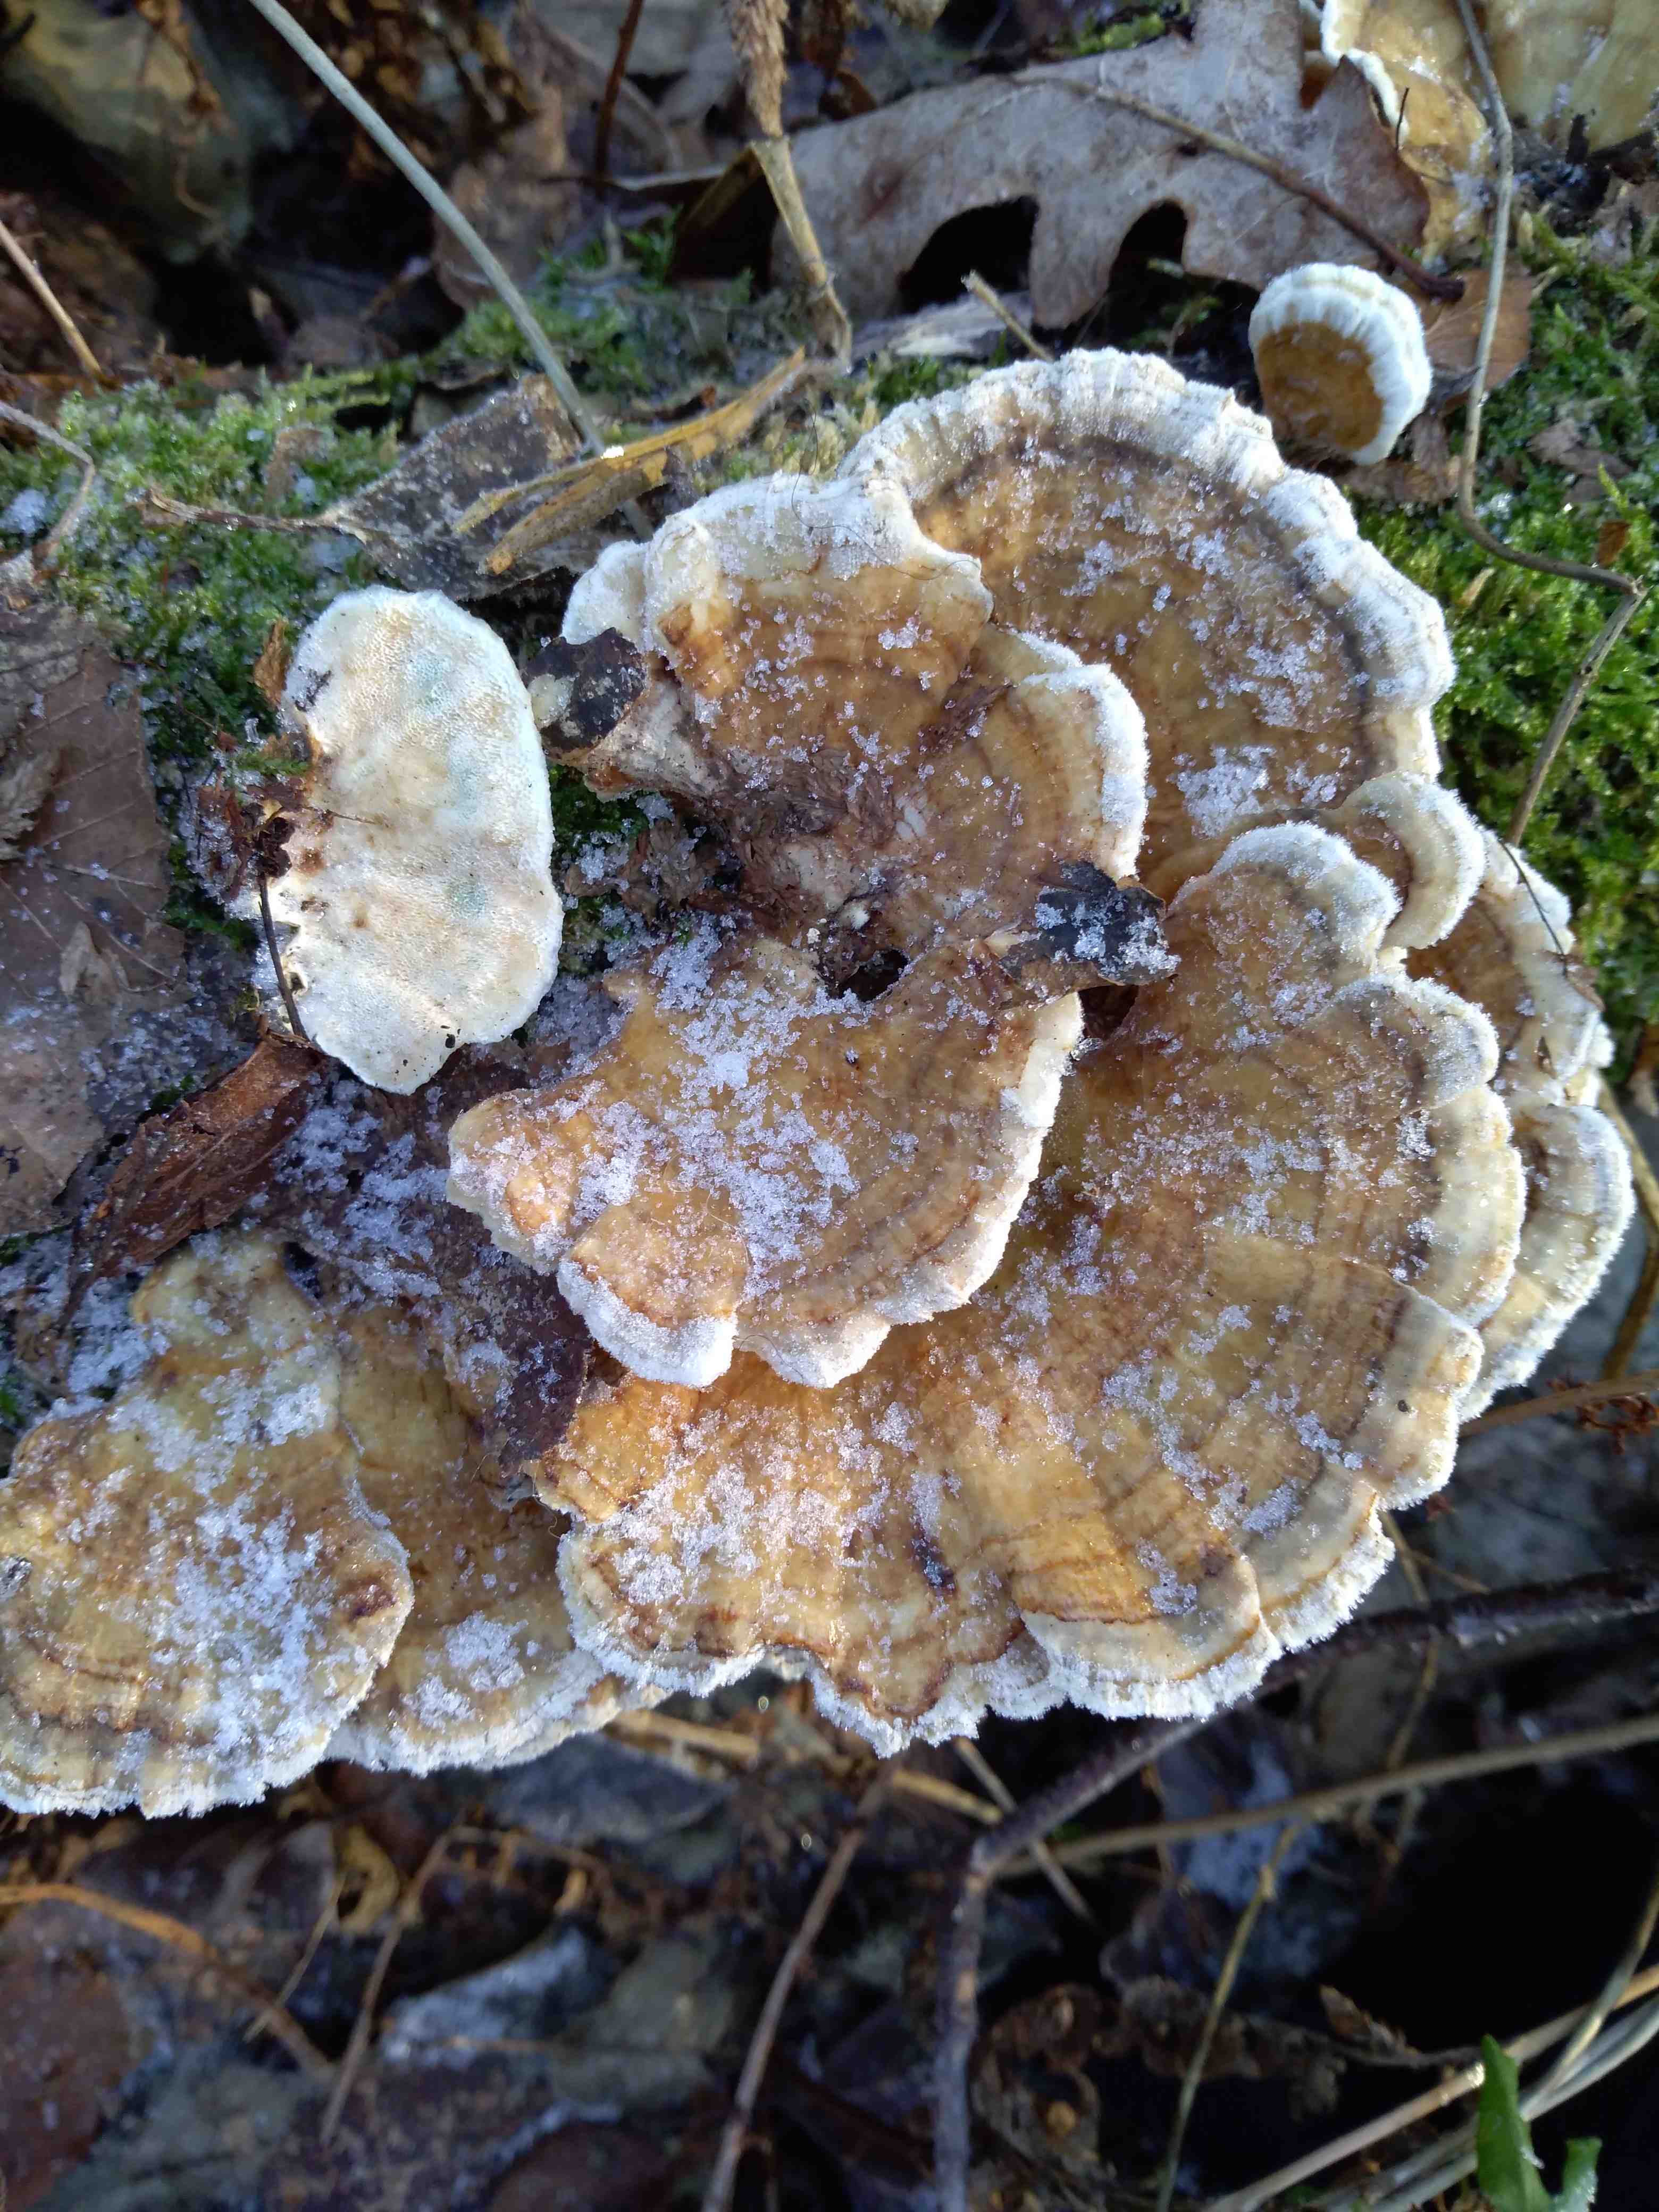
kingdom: Fungi
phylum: Basidiomycota
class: Agaricomycetes
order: Polyporales
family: Polyporaceae
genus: Trametes
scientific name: Trametes
